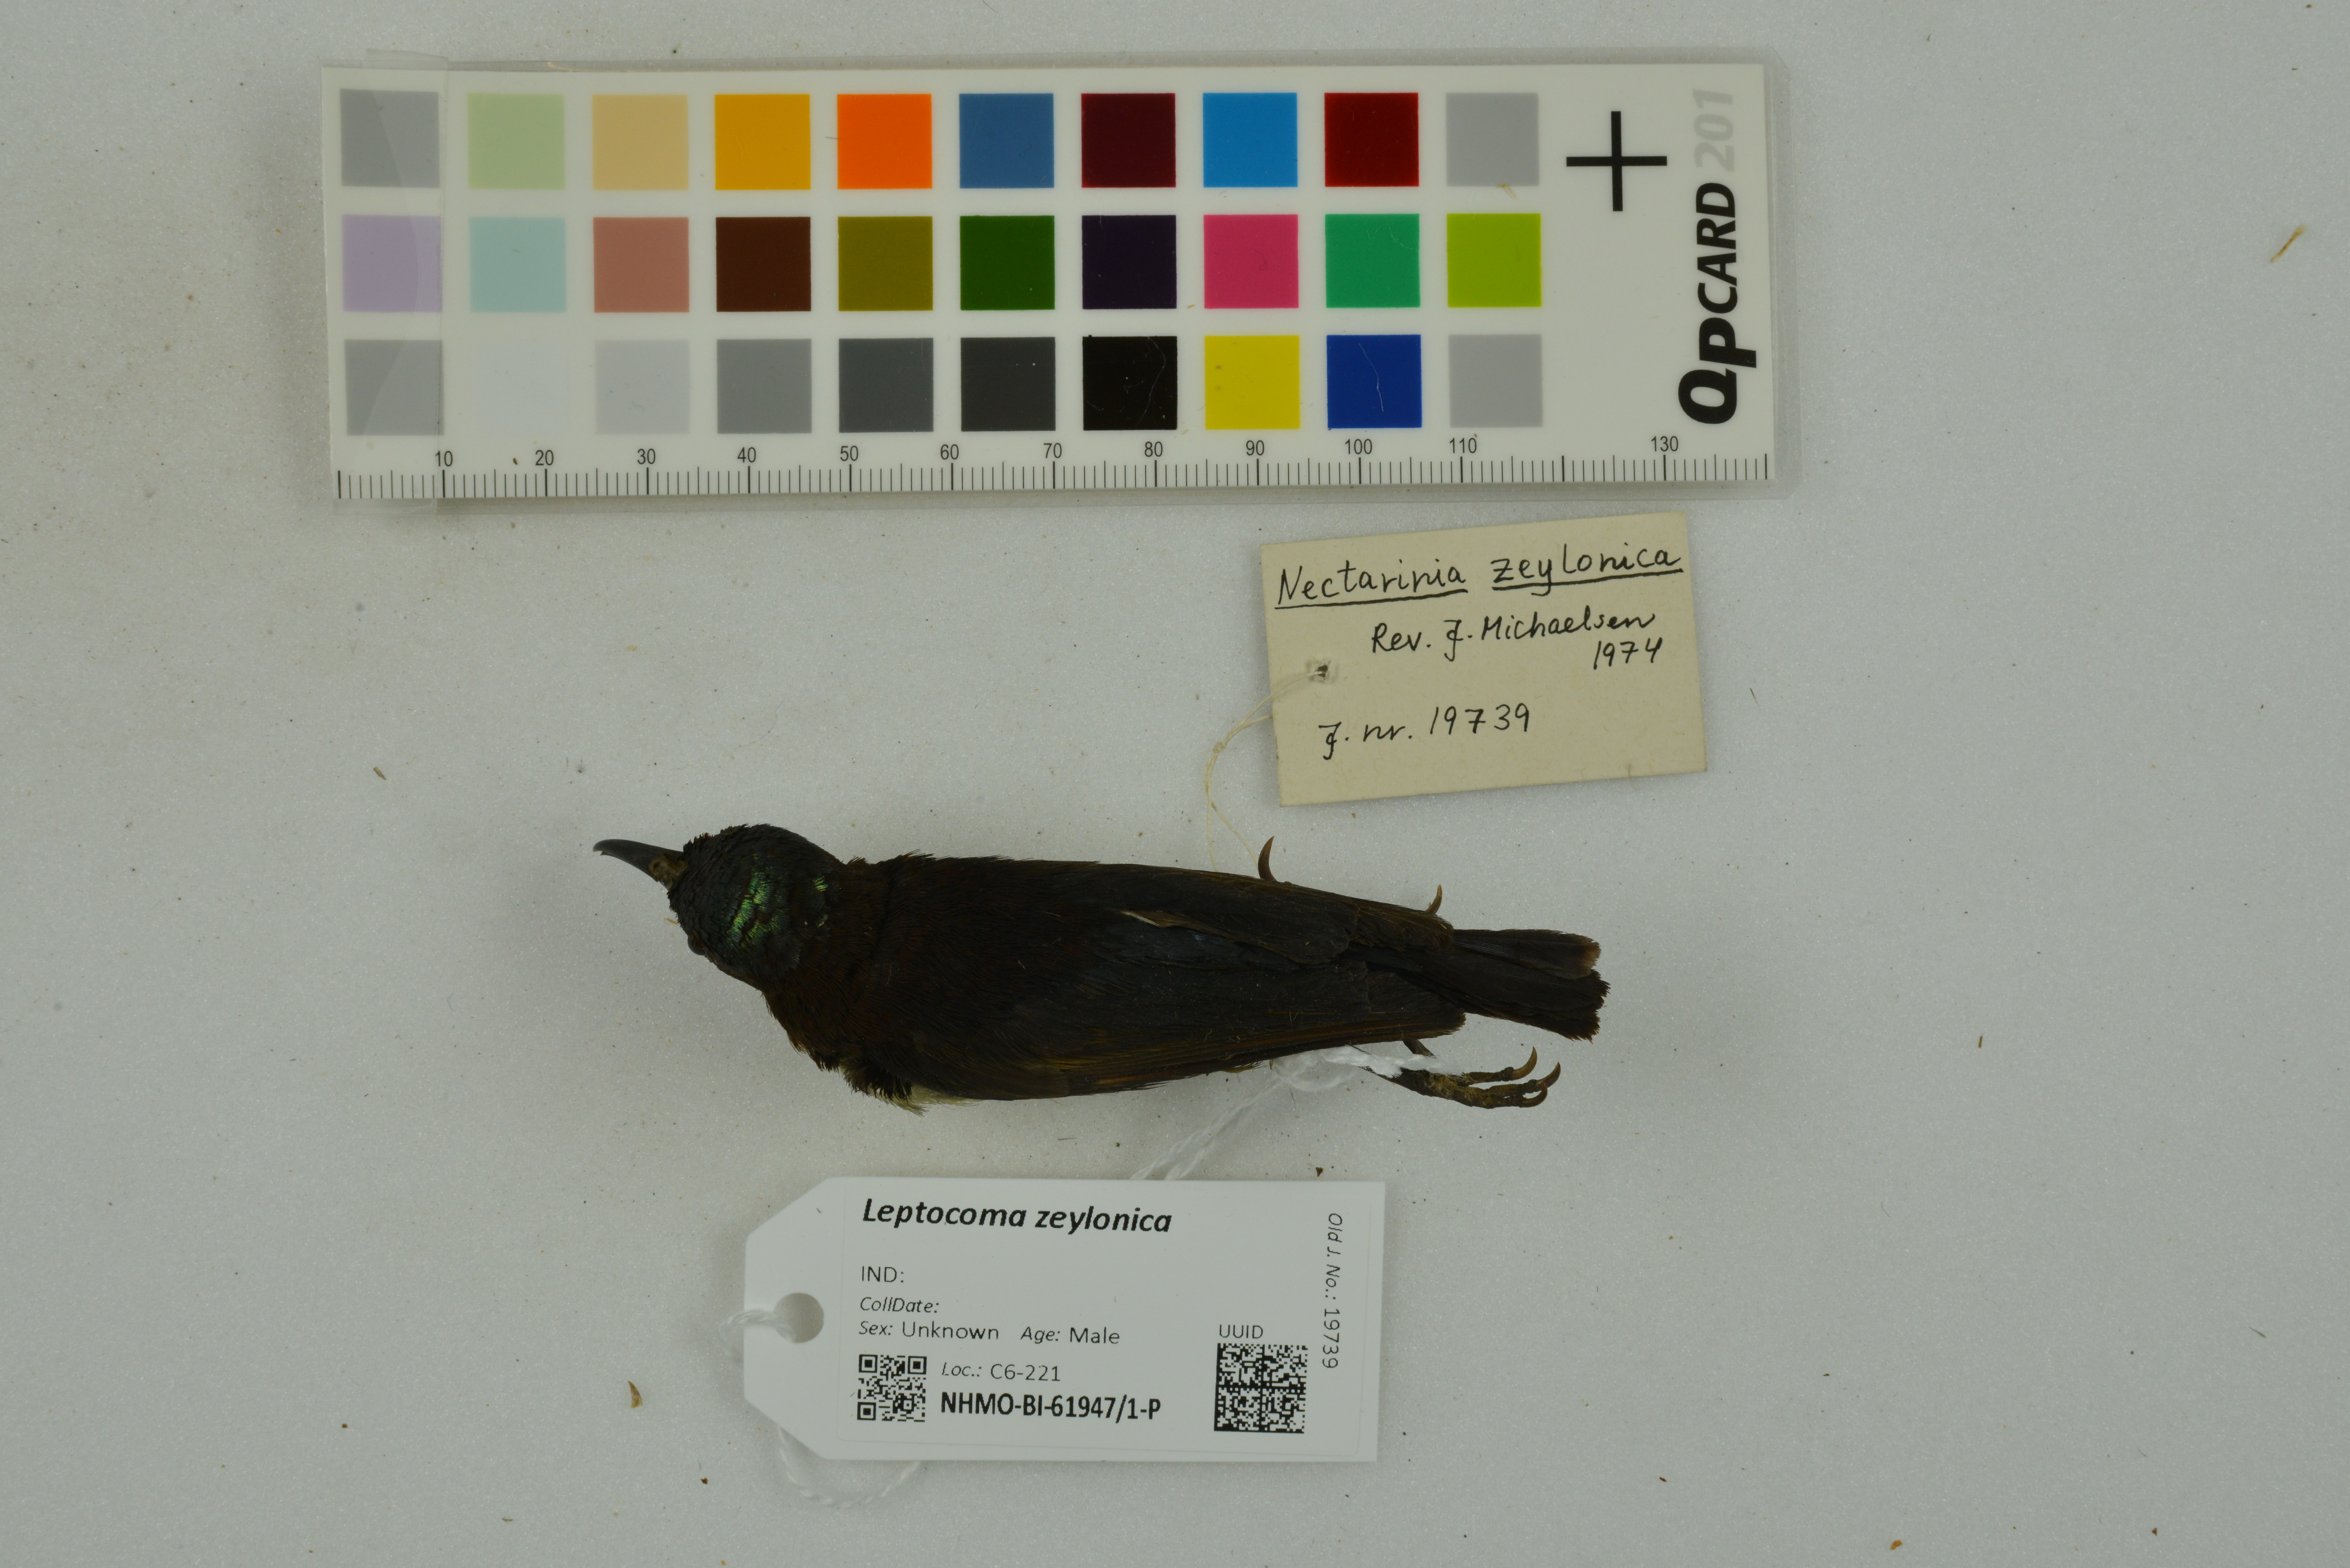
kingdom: Animalia
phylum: Chordata
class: Aves
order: Passeriformes
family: Nectariniidae
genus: Leptocoma
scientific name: Leptocoma zeylonica
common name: Purple-rumped sunbird
